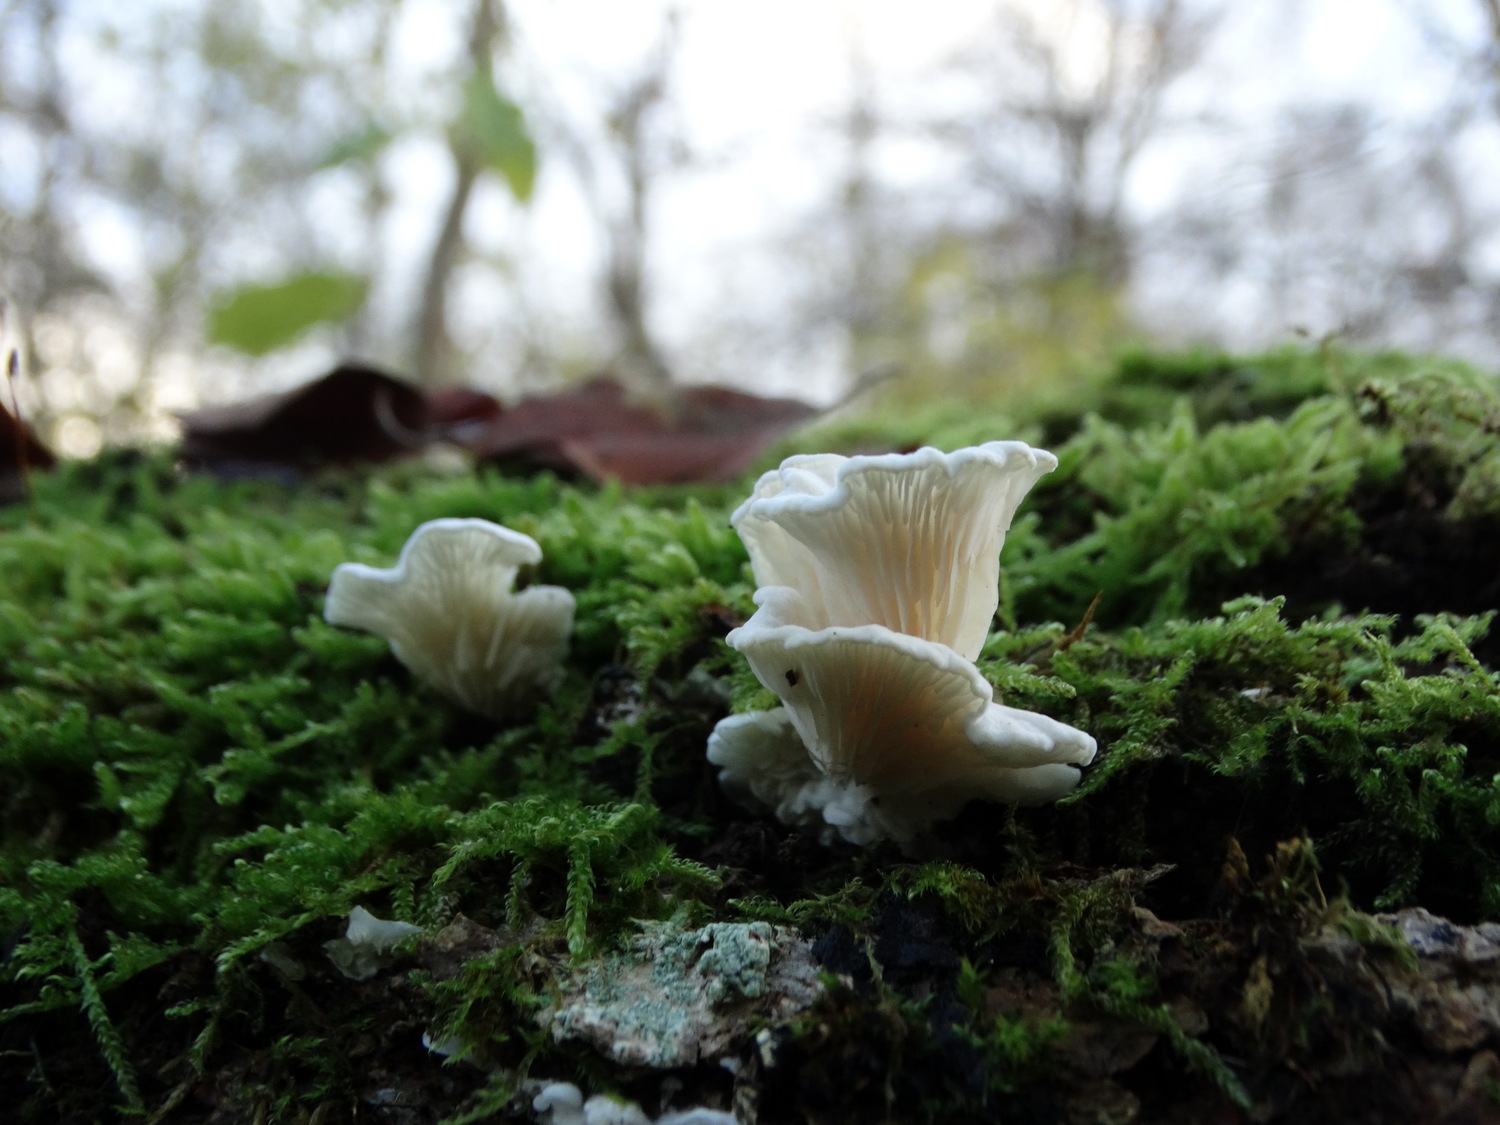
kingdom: Fungi
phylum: Basidiomycota
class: Agaricomycetes
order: Agaricales
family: Entolomataceae
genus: Clitopilus
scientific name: Clitopilus hobsonii
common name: Miller's oysterling
